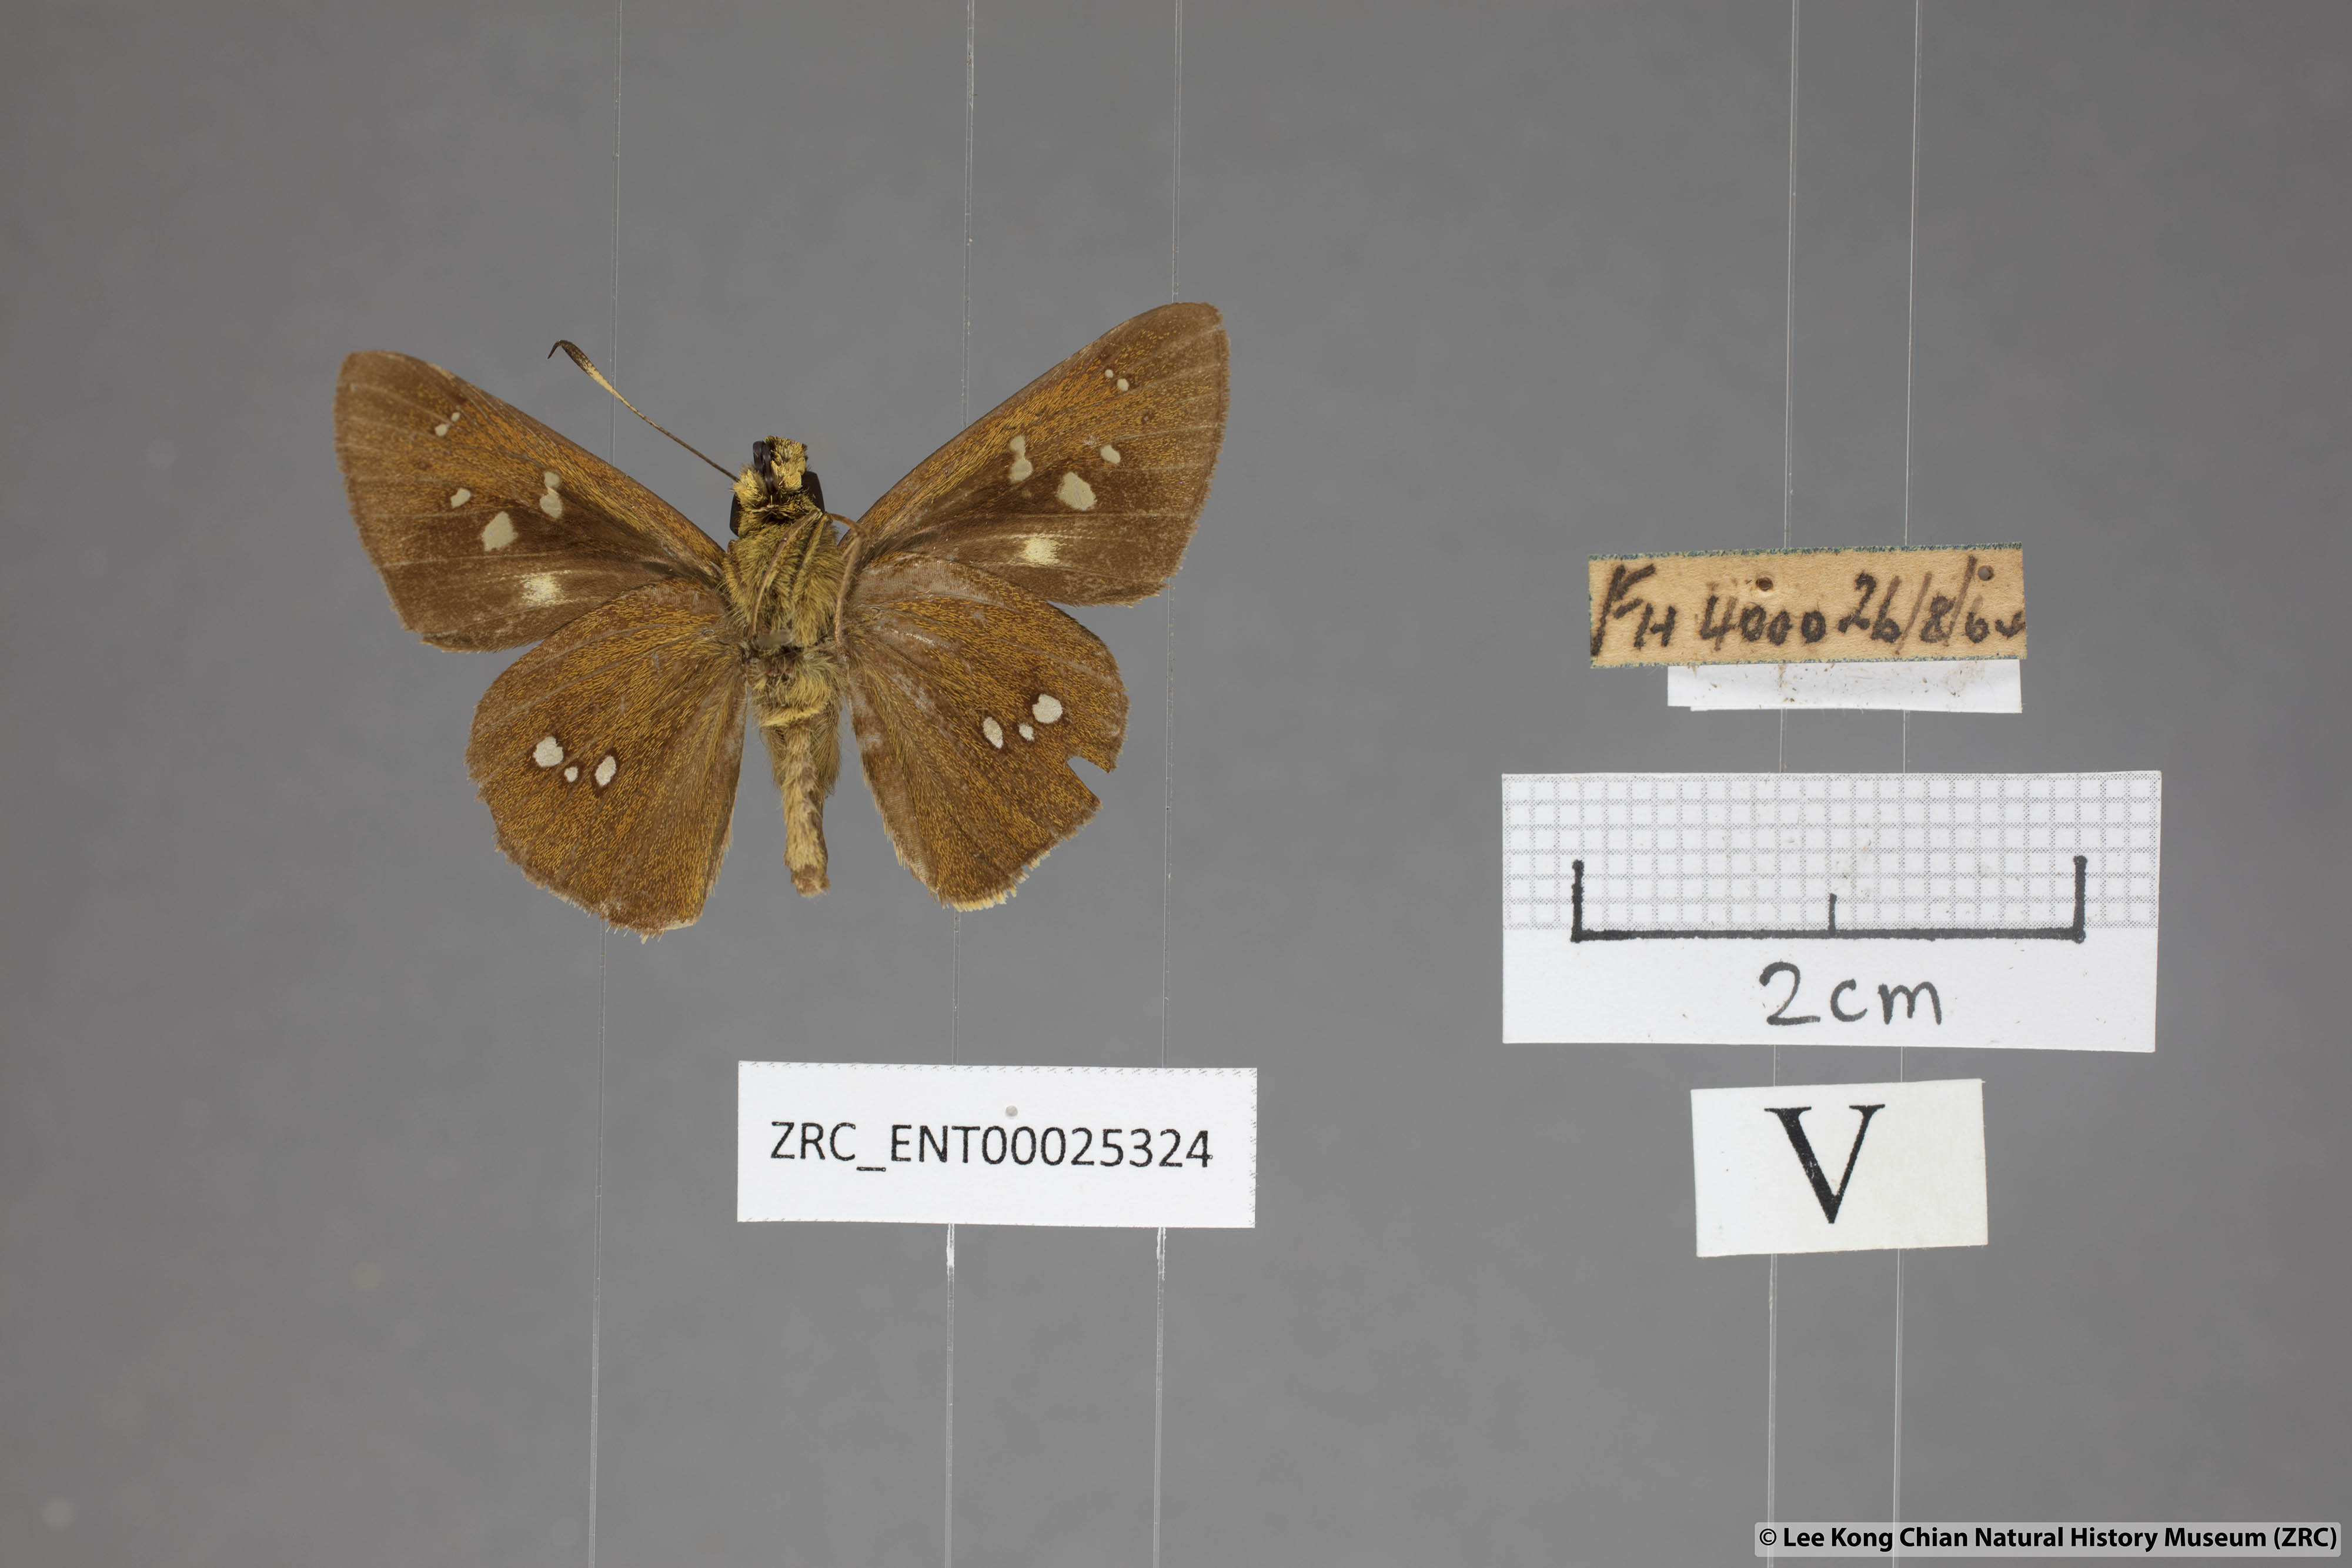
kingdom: Animalia
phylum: Arthropoda
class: Insecta
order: Lepidoptera
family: Hesperiidae
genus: Polytremis
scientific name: Polytremis eltola
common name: Yellow-spot swift
